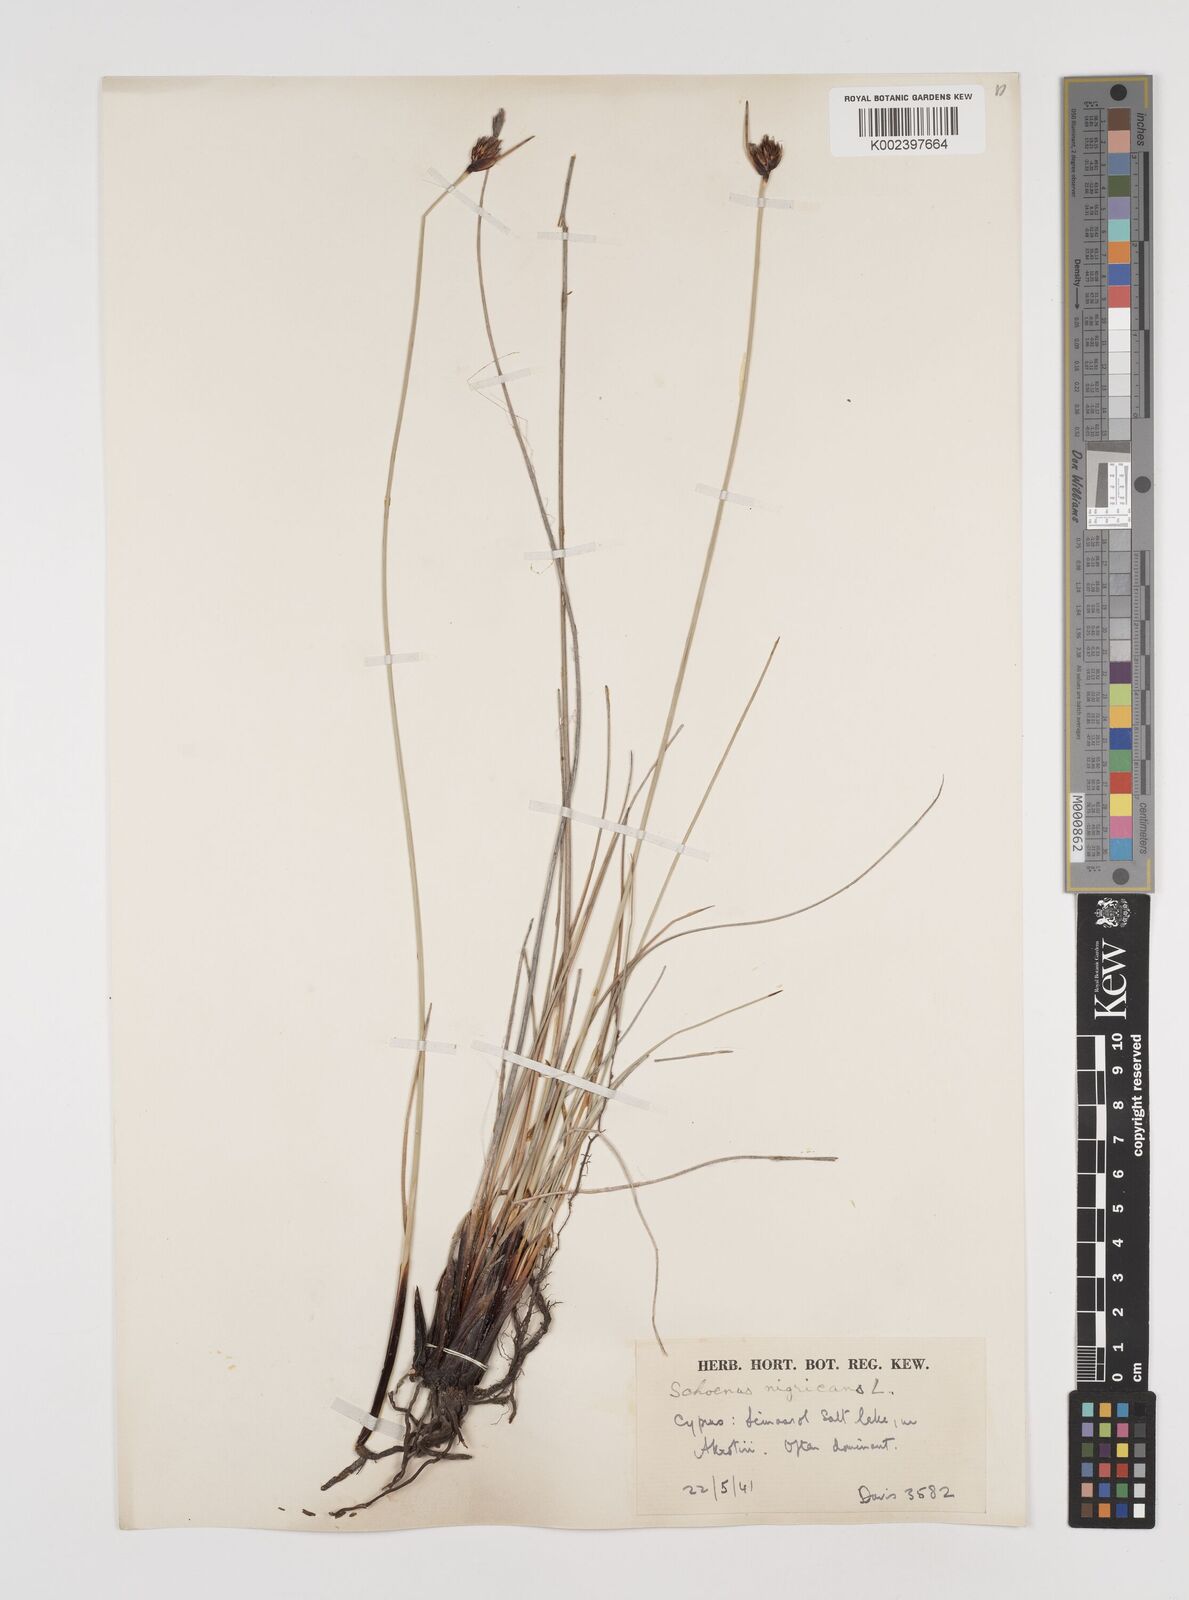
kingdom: Plantae
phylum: Tracheophyta
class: Liliopsida
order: Poales
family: Cyperaceae
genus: Schoenus
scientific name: Schoenus nigricans
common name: Black bog-rush
